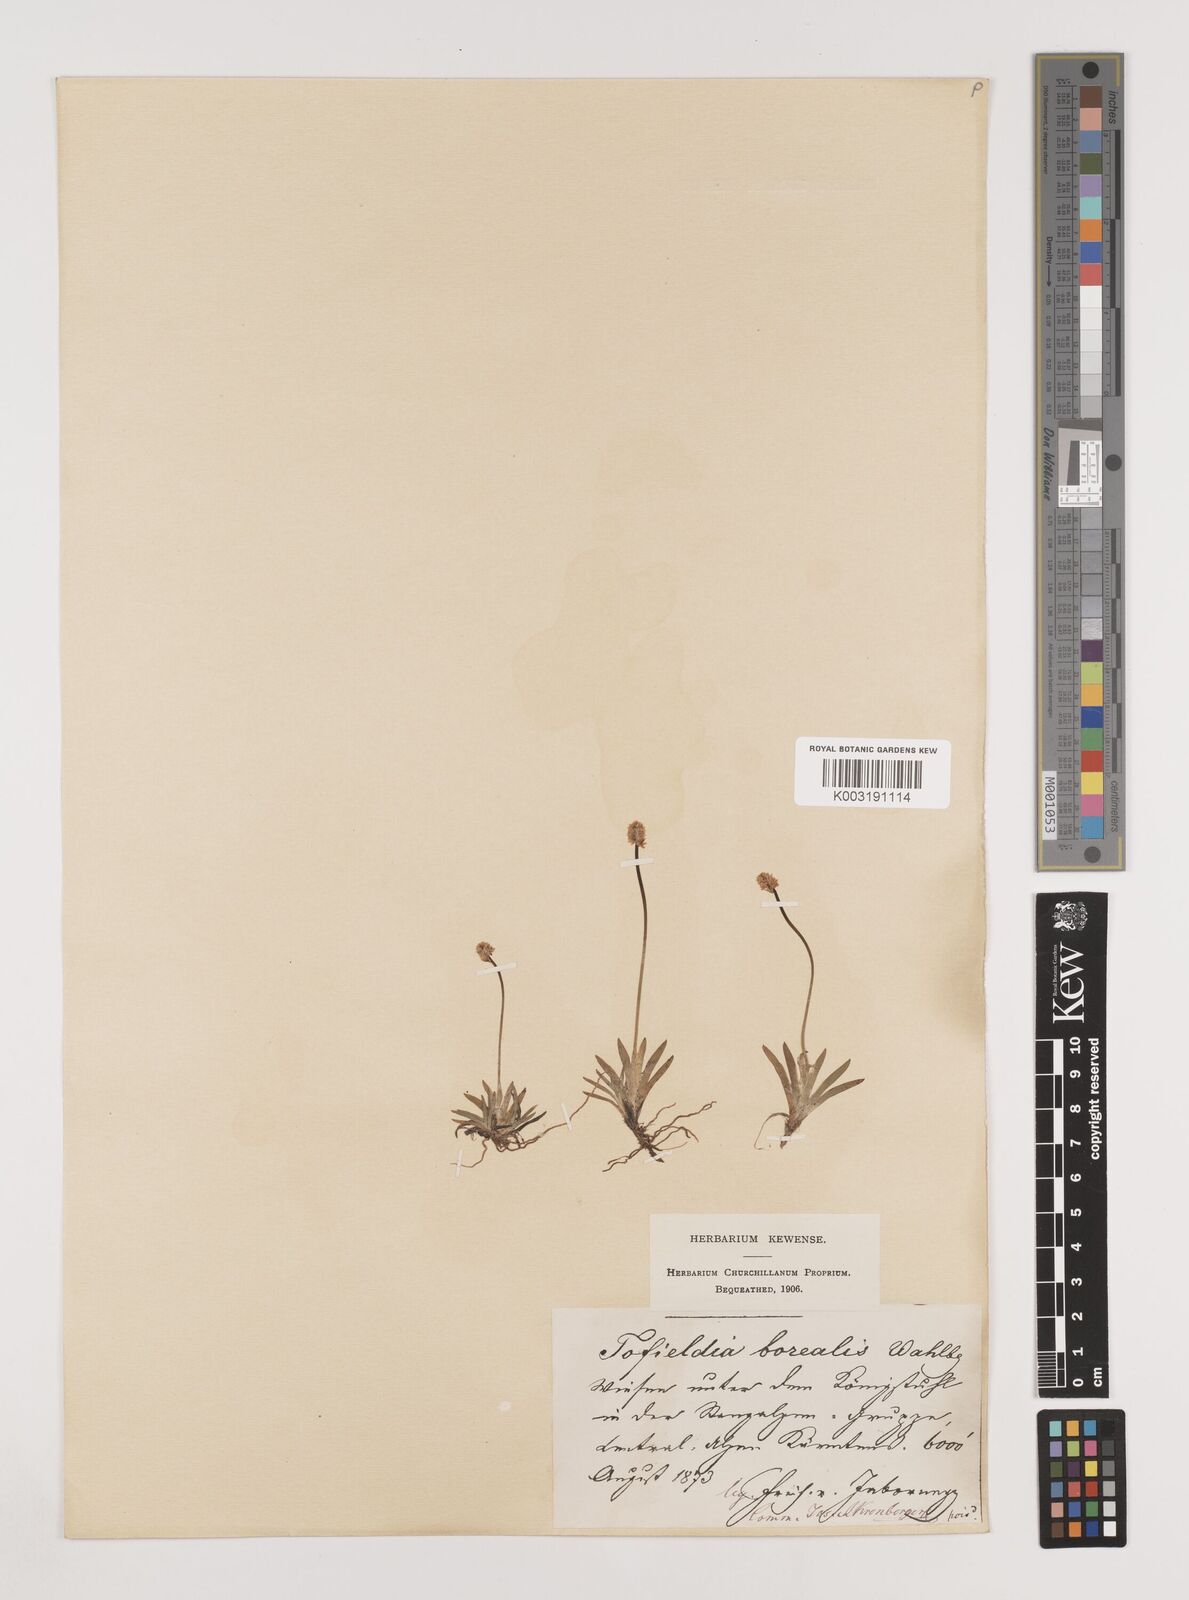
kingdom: Plantae
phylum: Tracheophyta
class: Liliopsida
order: Alismatales
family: Tofieldiaceae
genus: Tofieldia
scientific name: Tofieldia pusilla
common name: Scottish false asphodel
